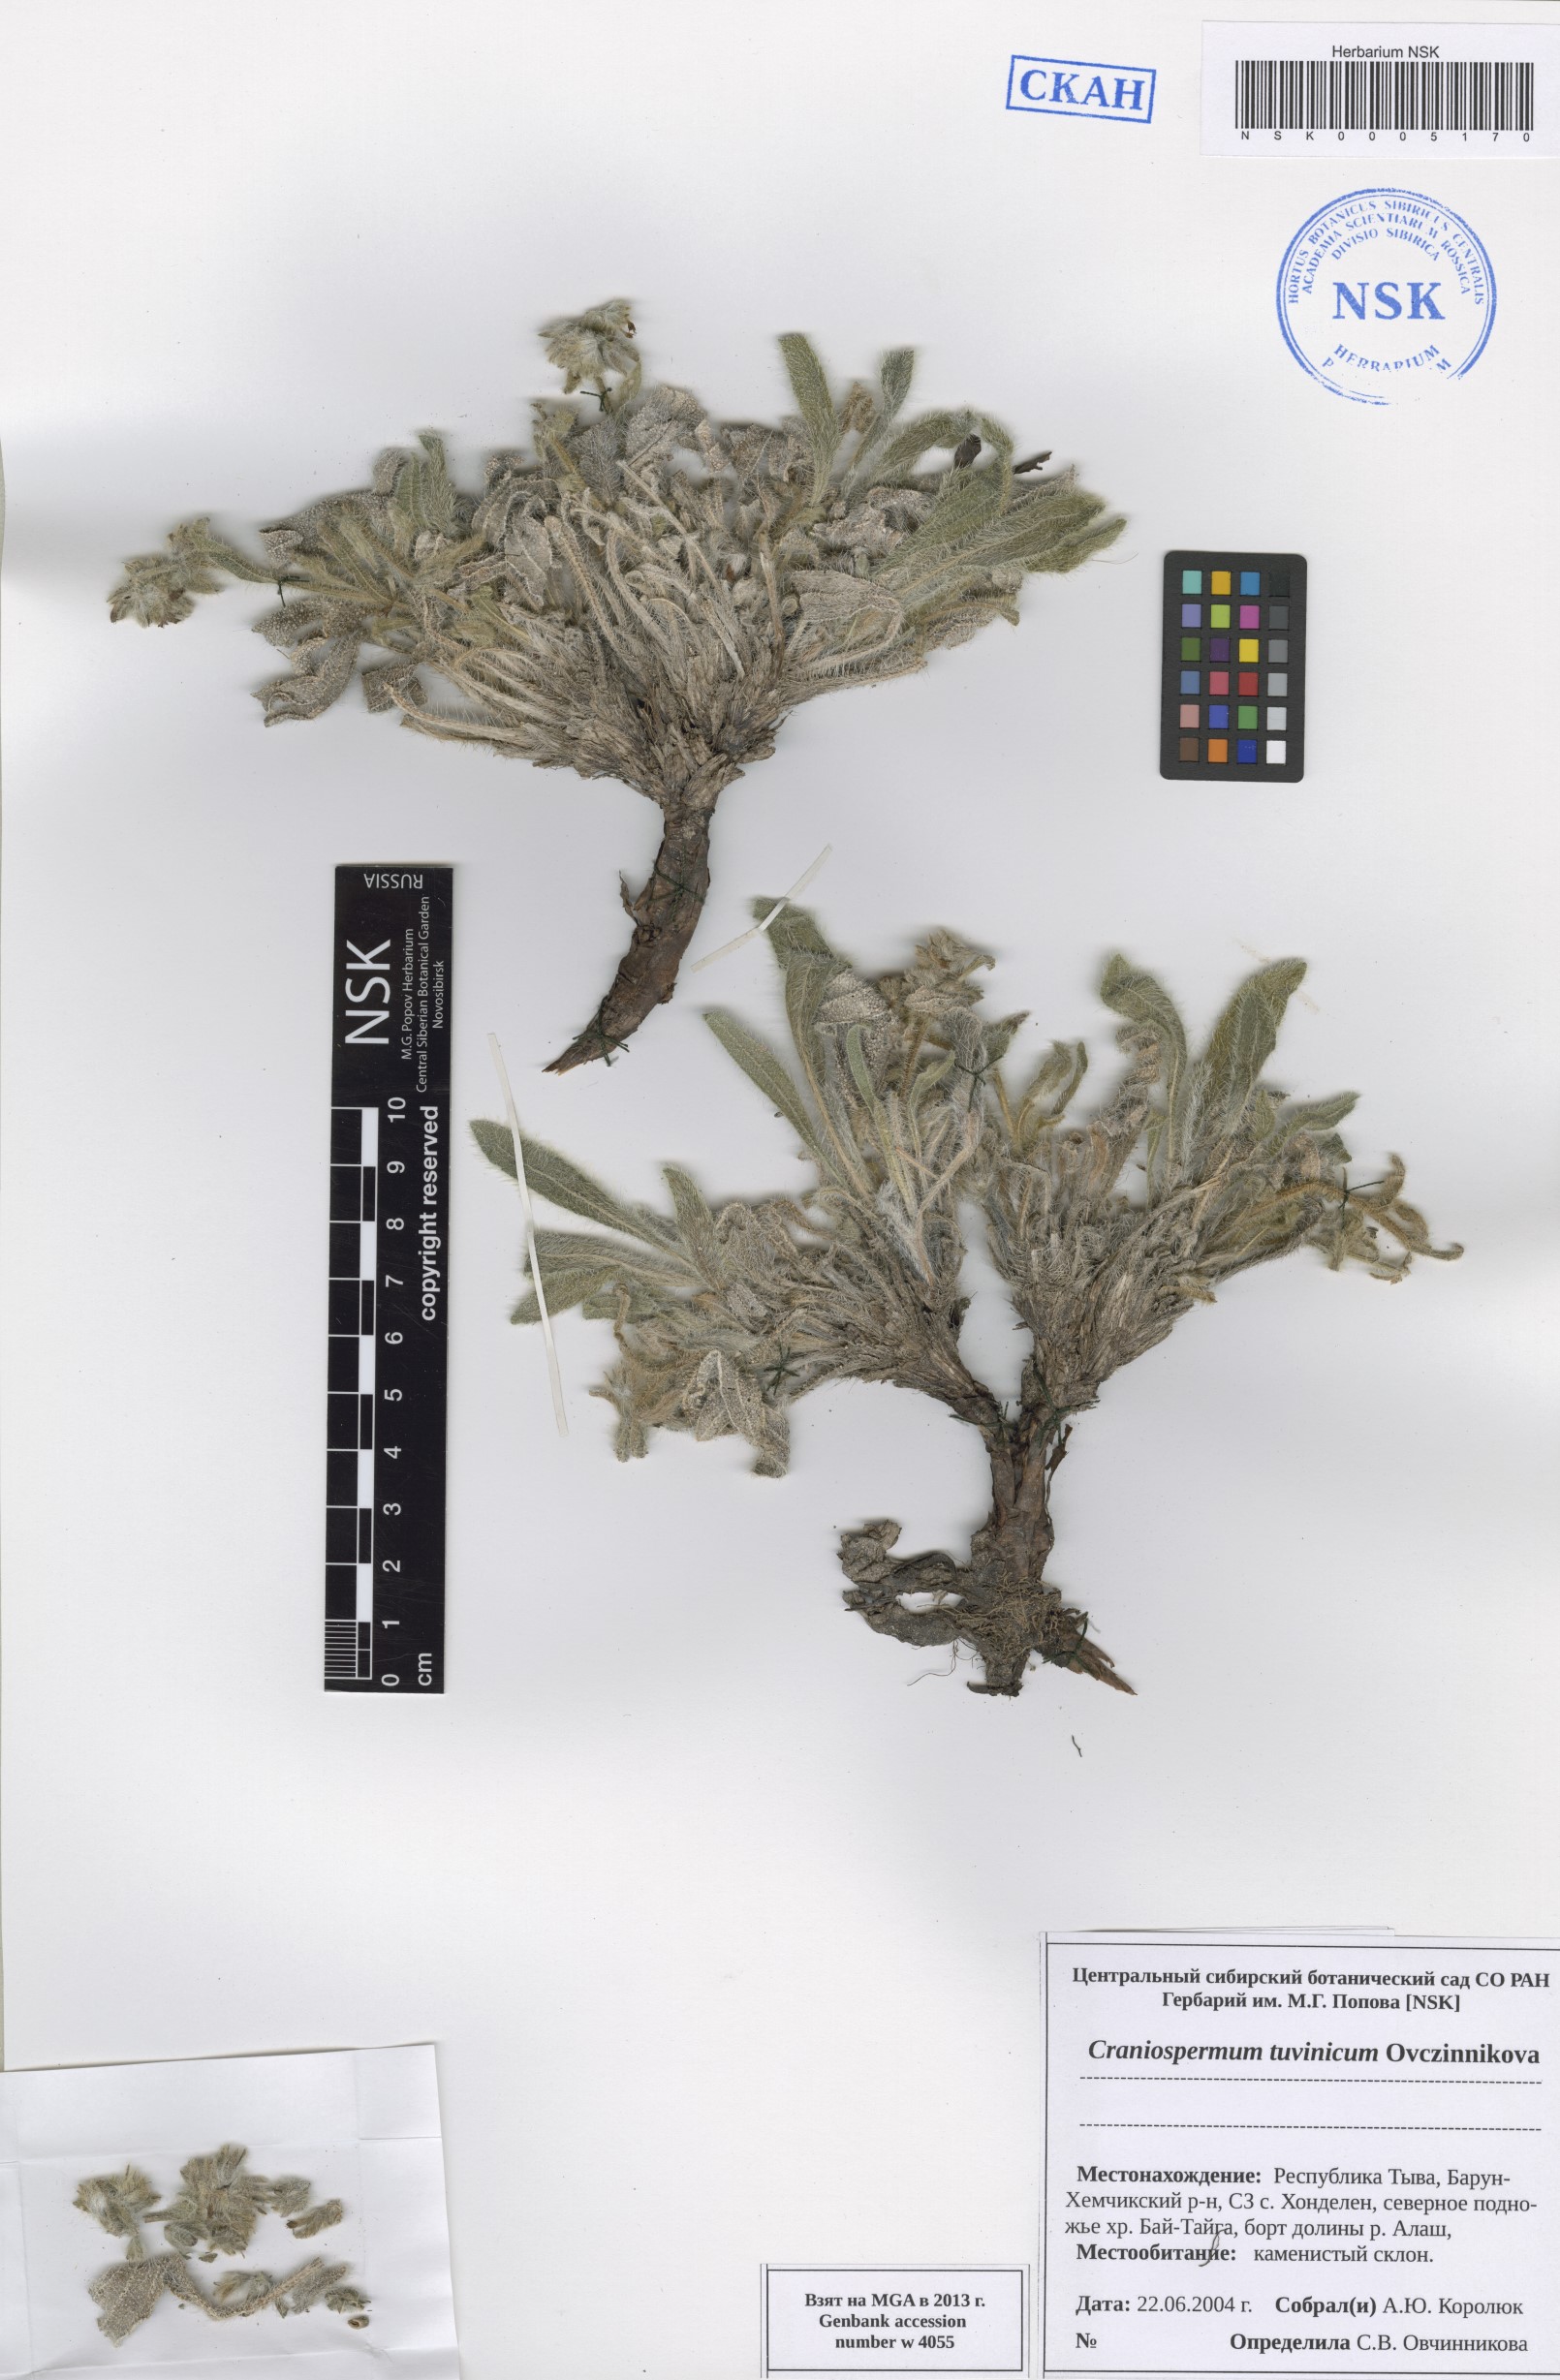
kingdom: Plantae
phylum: Tracheophyta
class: Magnoliopsida
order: Boraginales
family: Boraginaceae
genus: Craniospermum
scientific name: Craniospermum tuvinicum
